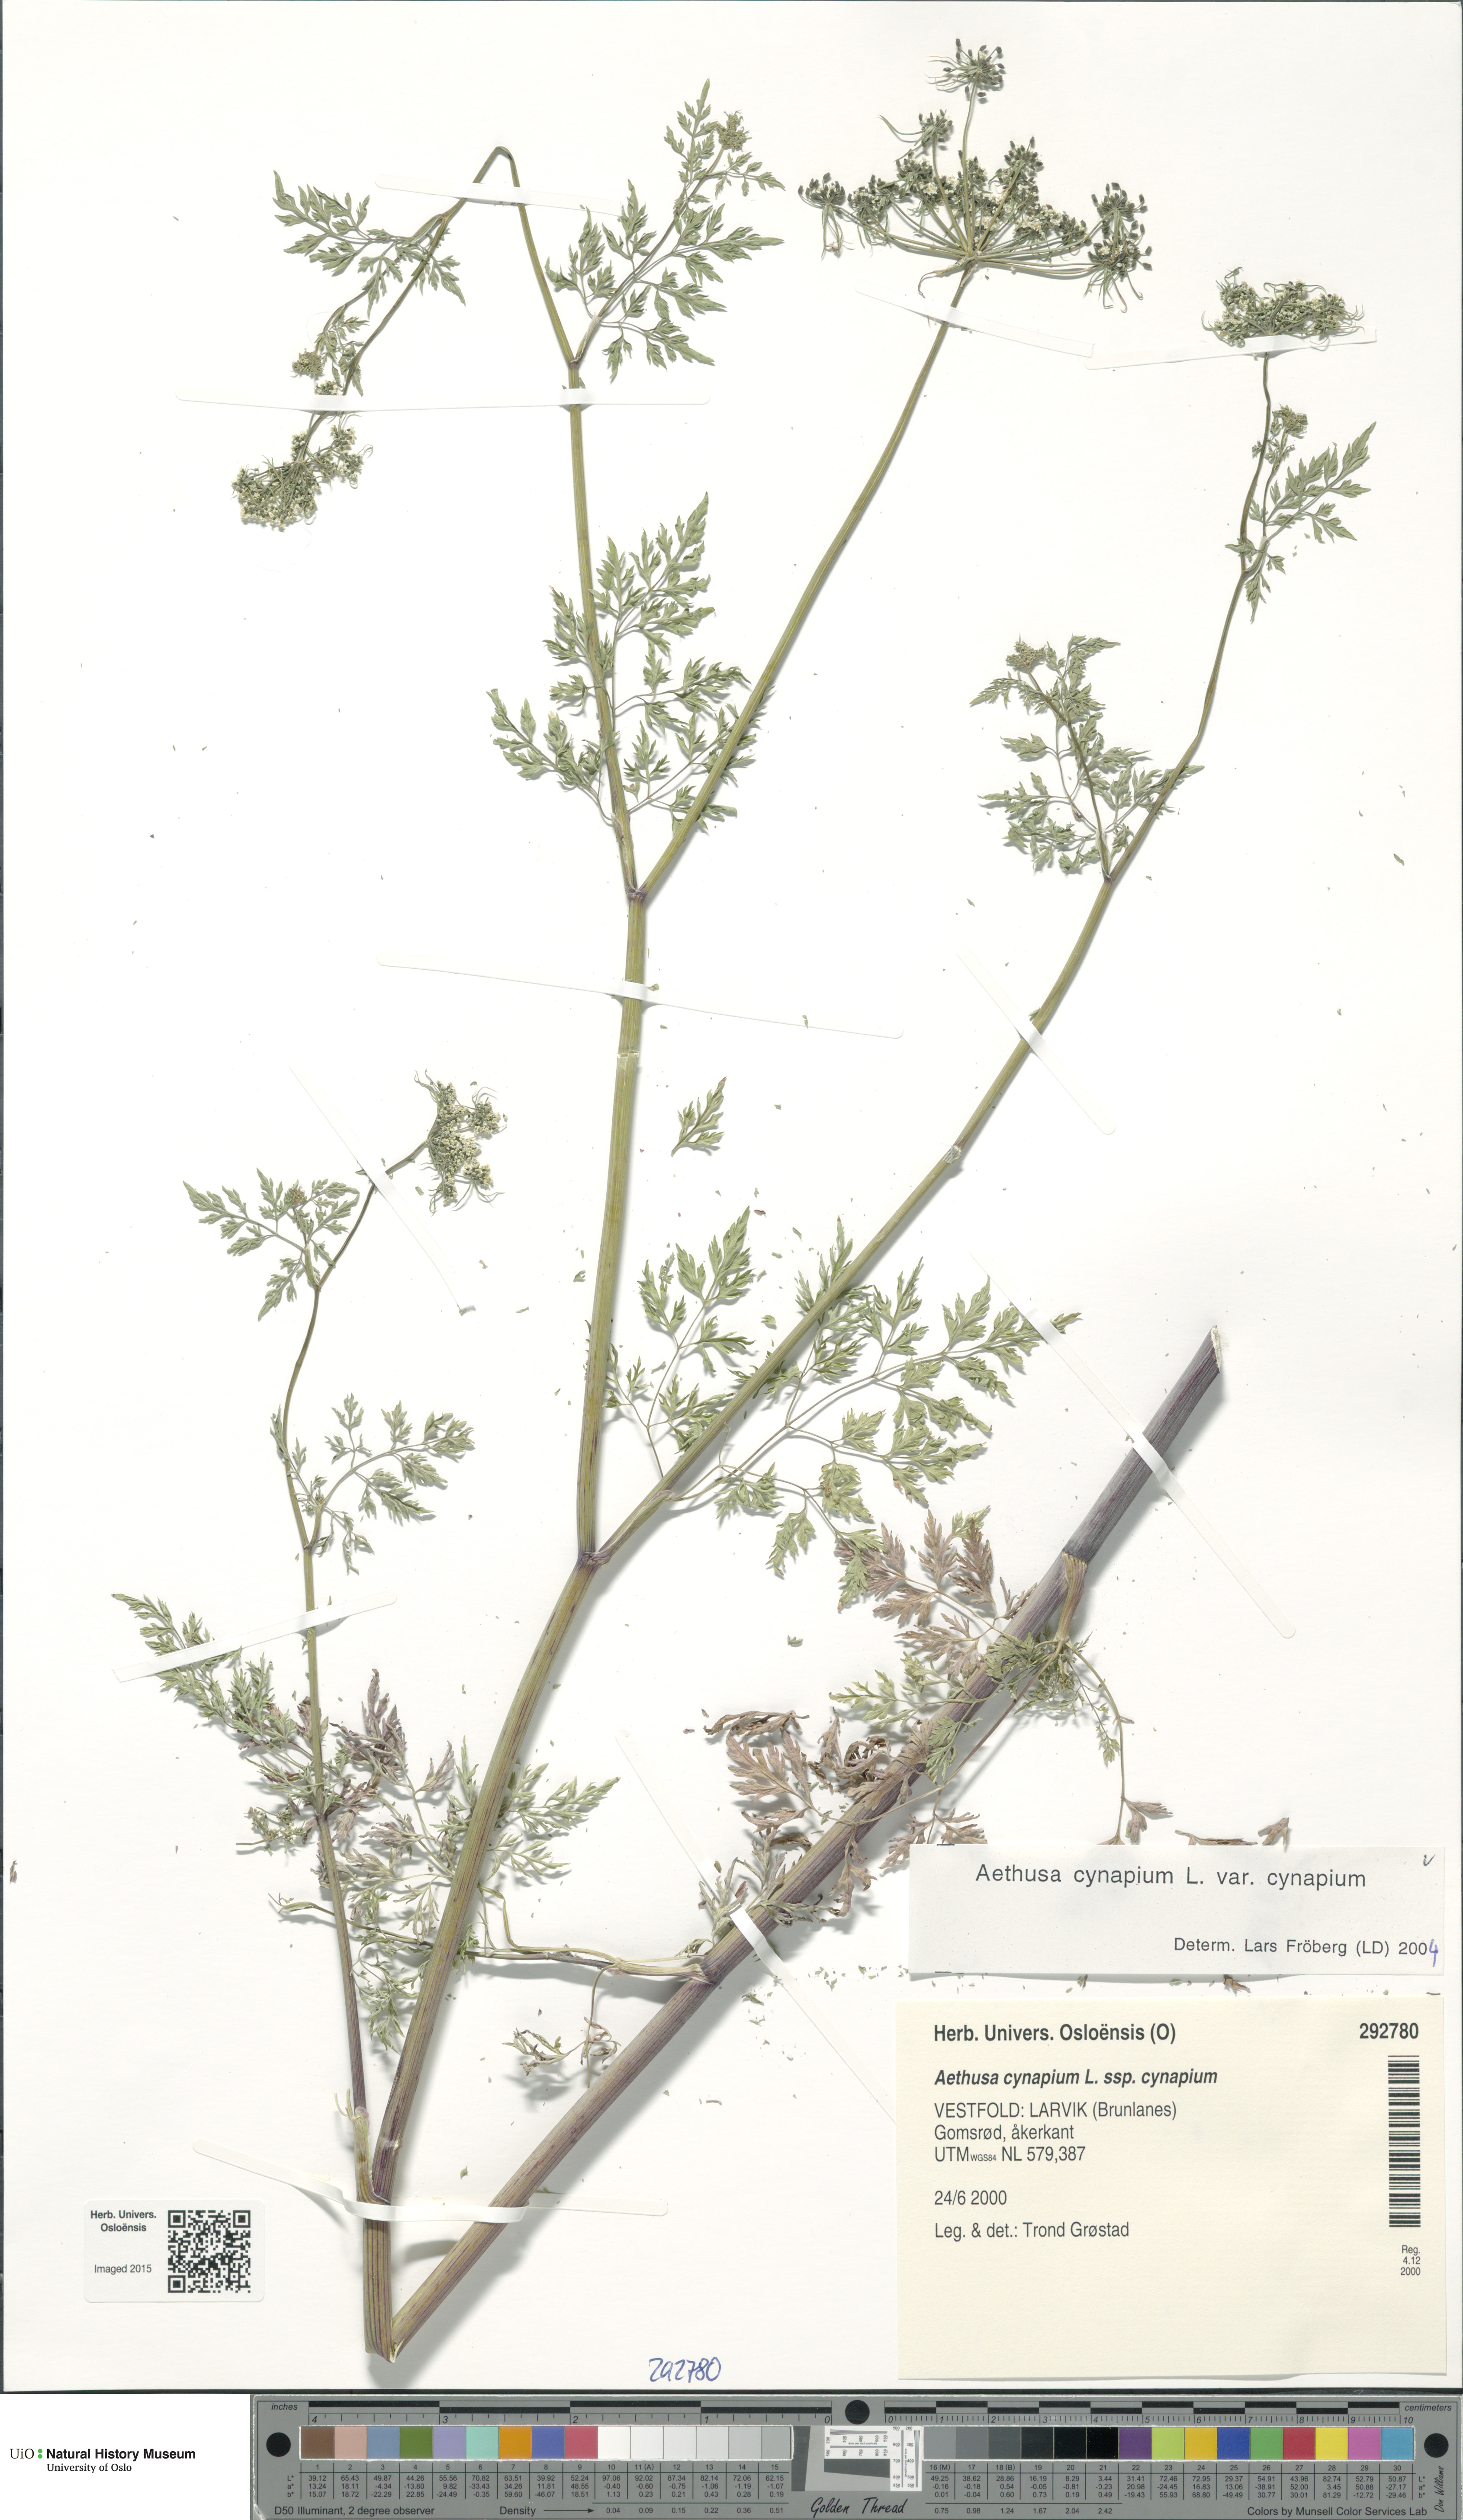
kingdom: Plantae
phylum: Tracheophyta
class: Magnoliopsida
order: Apiales
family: Apiaceae
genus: Aethusa
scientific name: Aethusa cynapium
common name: Fool's parsley
